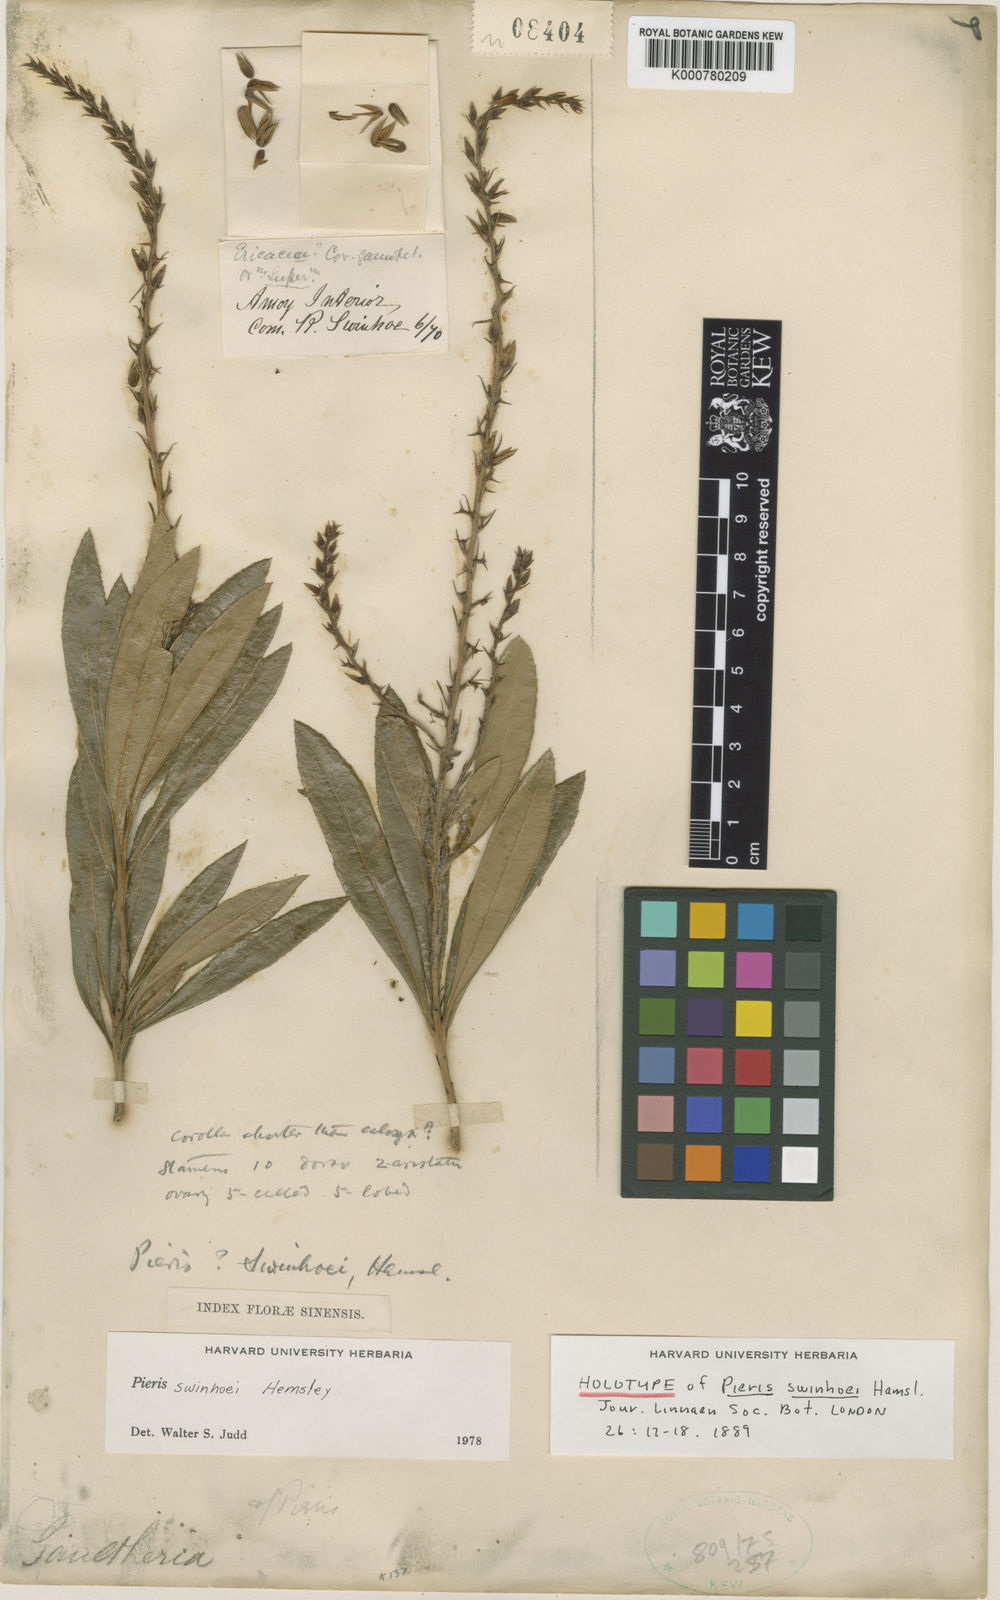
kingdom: Plantae
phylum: Tracheophyta
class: Magnoliopsida
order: Ericales
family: Ericaceae
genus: Pieris
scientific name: Pieris swinhoei
